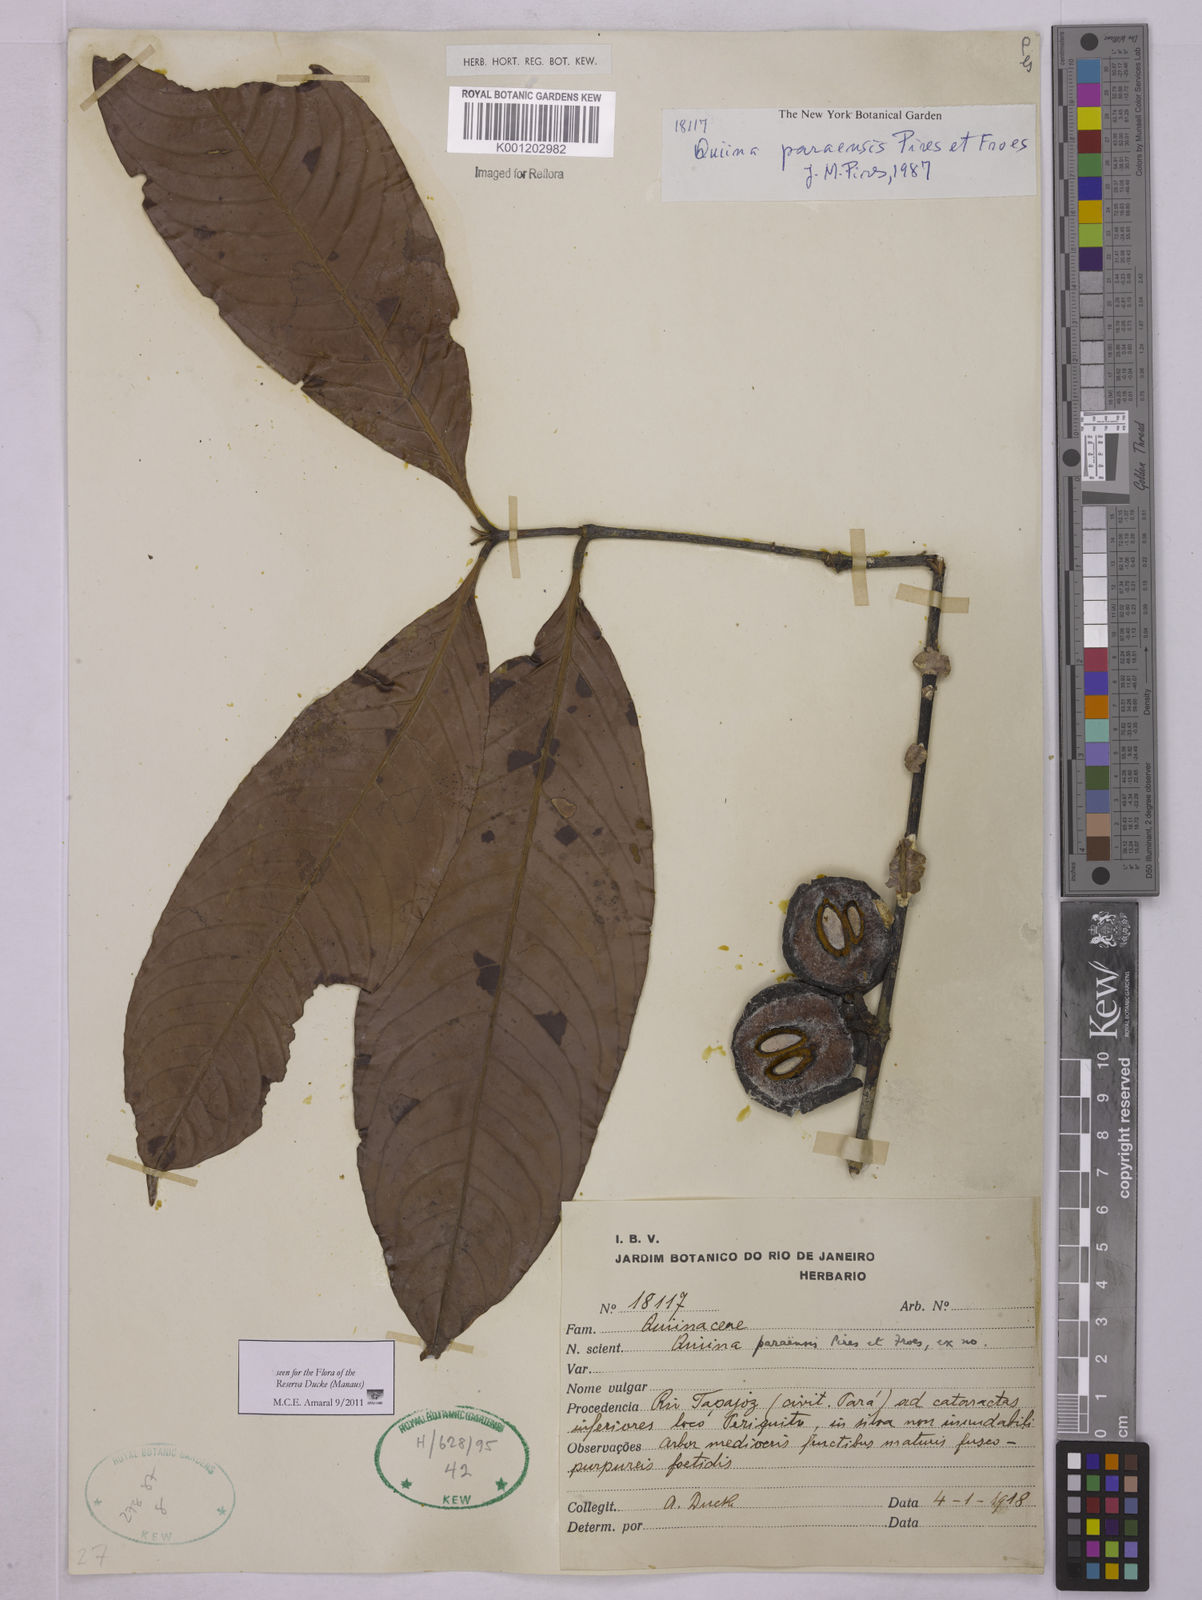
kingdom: Plantae
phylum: Tracheophyta
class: Magnoliopsida
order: Malpighiales
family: Quiinaceae
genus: Quiina
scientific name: Quiina paraensis
